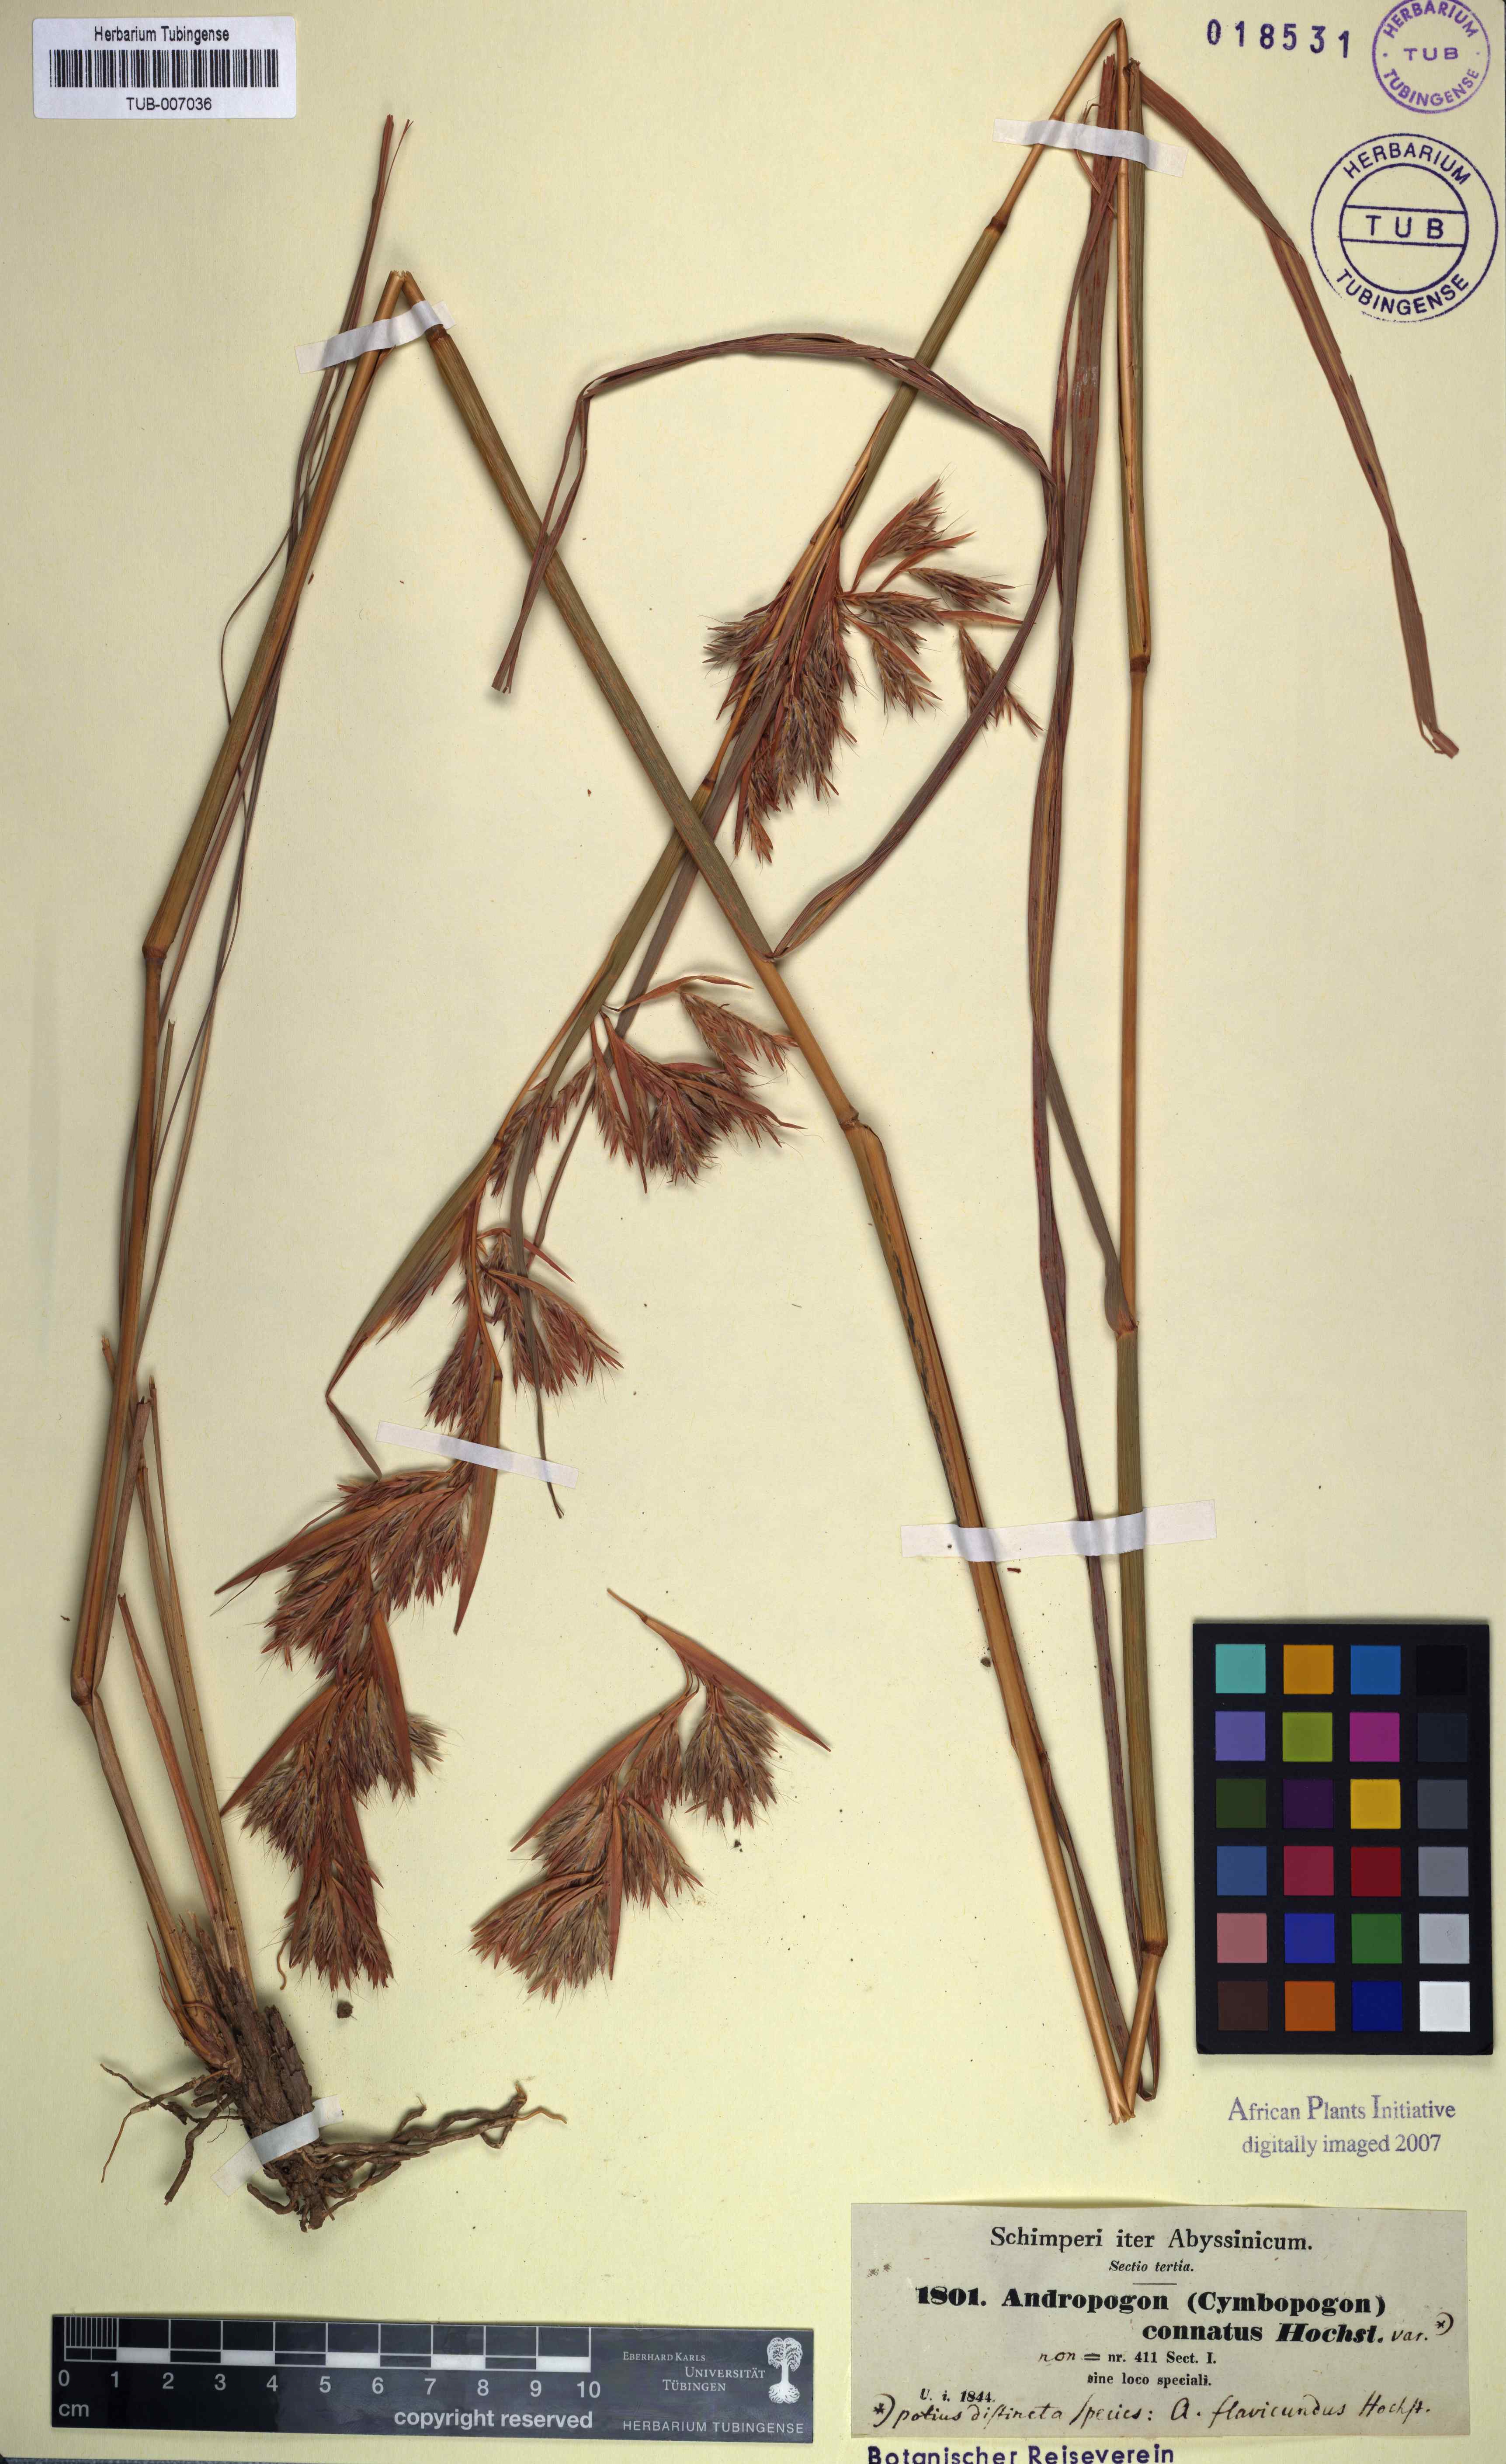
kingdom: Plantae
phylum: Tracheophyta
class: Liliopsida
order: Poales
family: Poaceae
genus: Cymbopogon
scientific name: Cymbopogon commutatus
